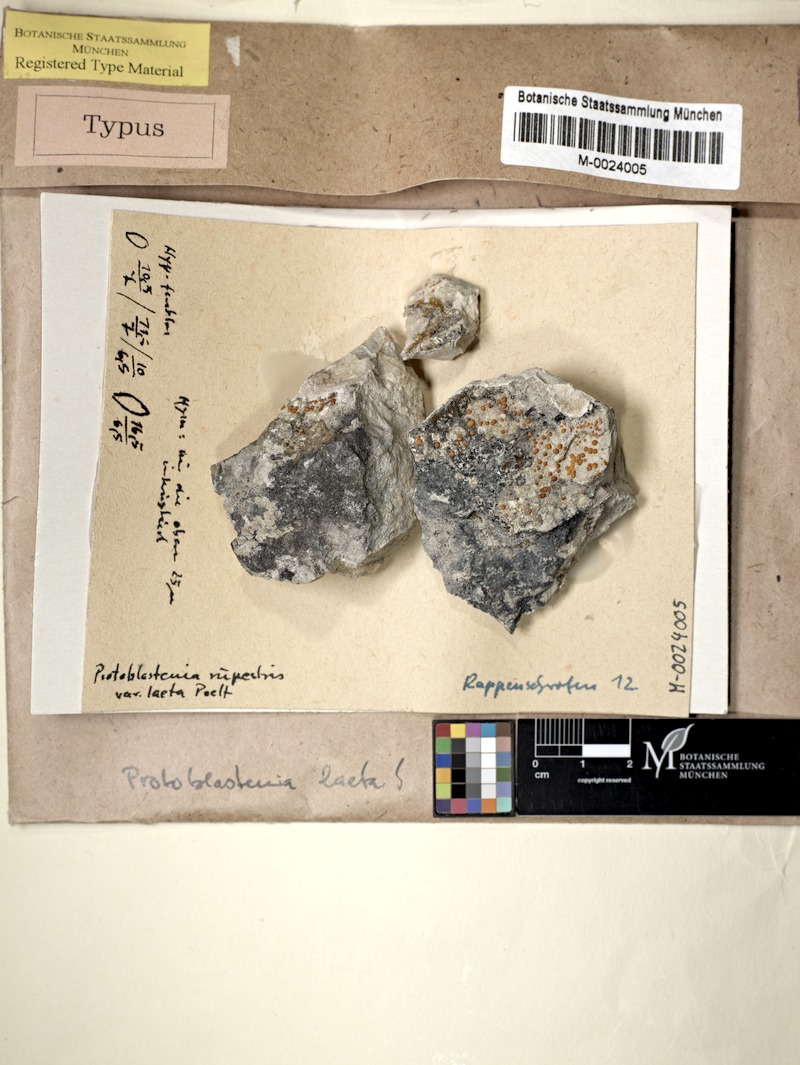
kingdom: Fungi
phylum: Ascomycota
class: Lecanoromycetes
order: Lecanorales
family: Psoraceae
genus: Protoblastenia
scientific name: Protoblastenia laeta
